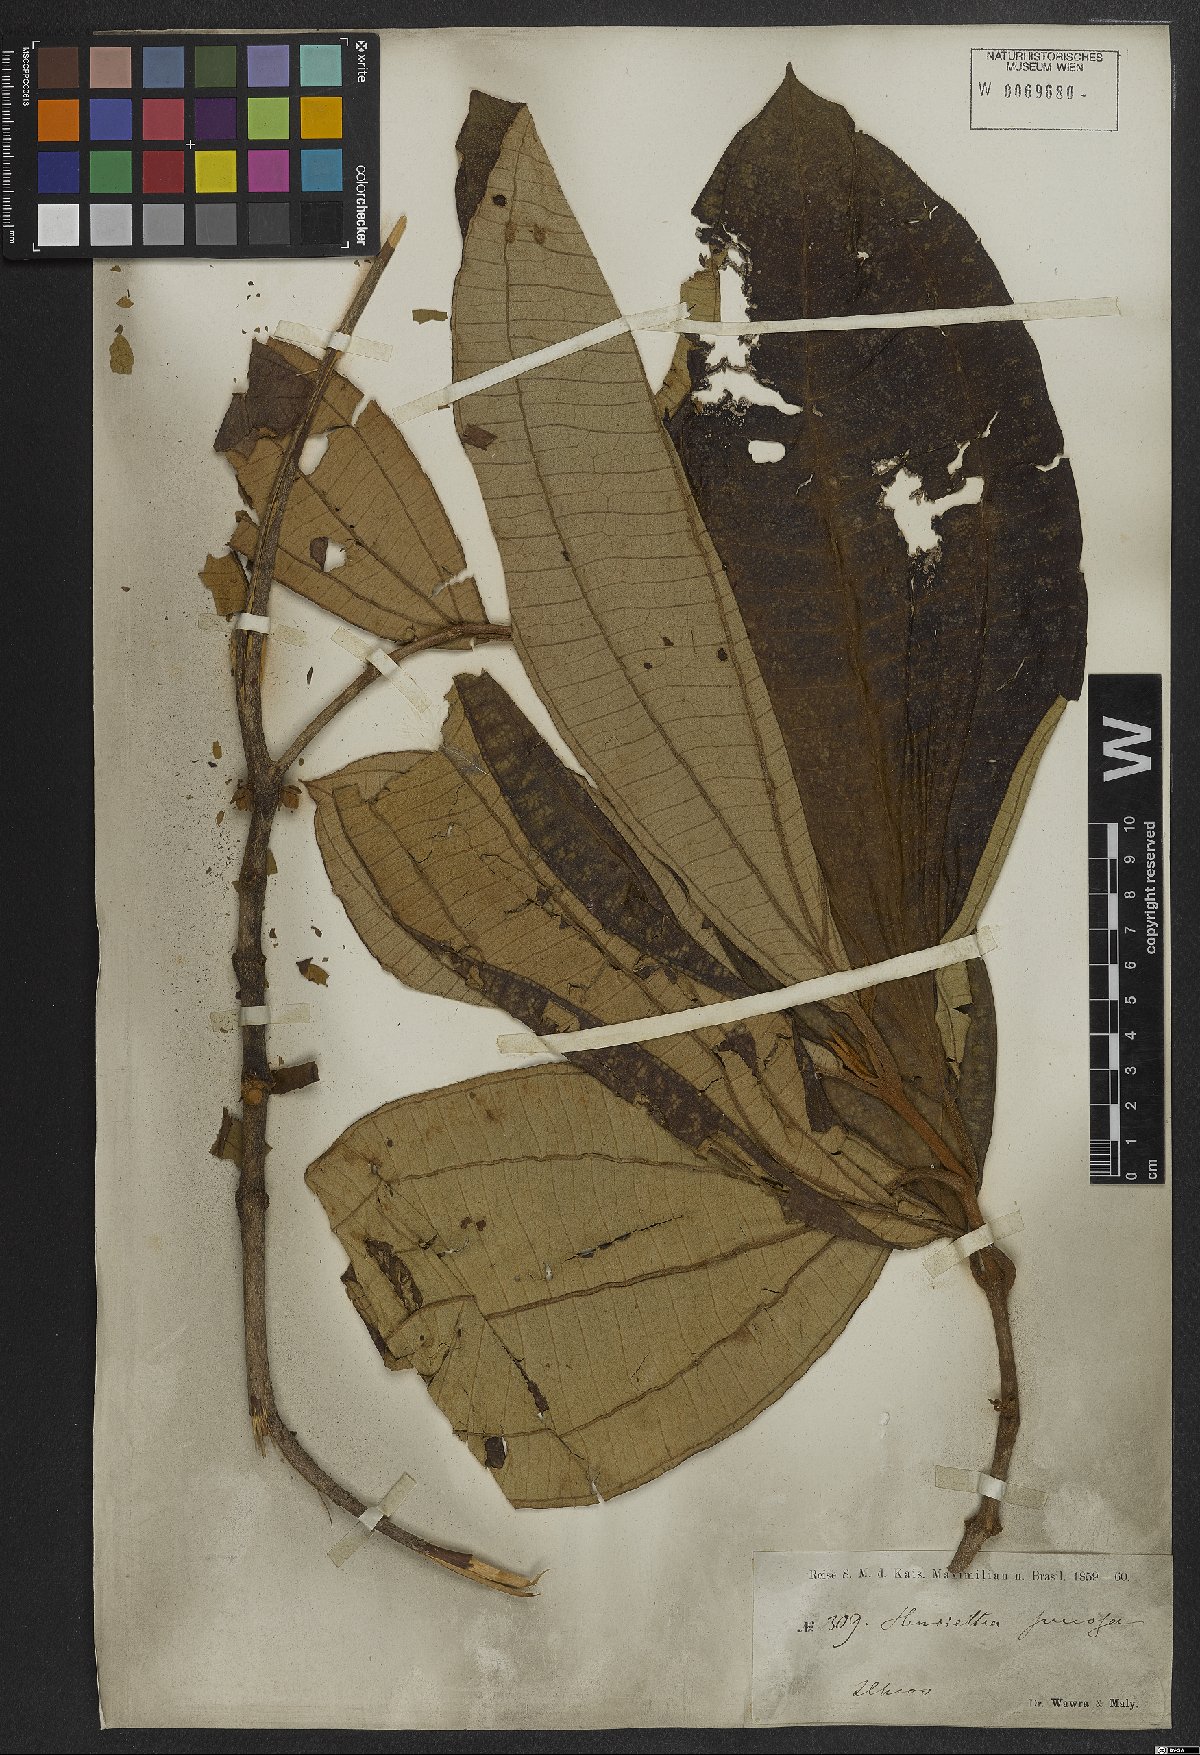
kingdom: Plantae
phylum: Tracheophyta
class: Magnoliopsida
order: Myrtales
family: Melastomataceae
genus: Henriettea
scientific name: Henriettea succosa
